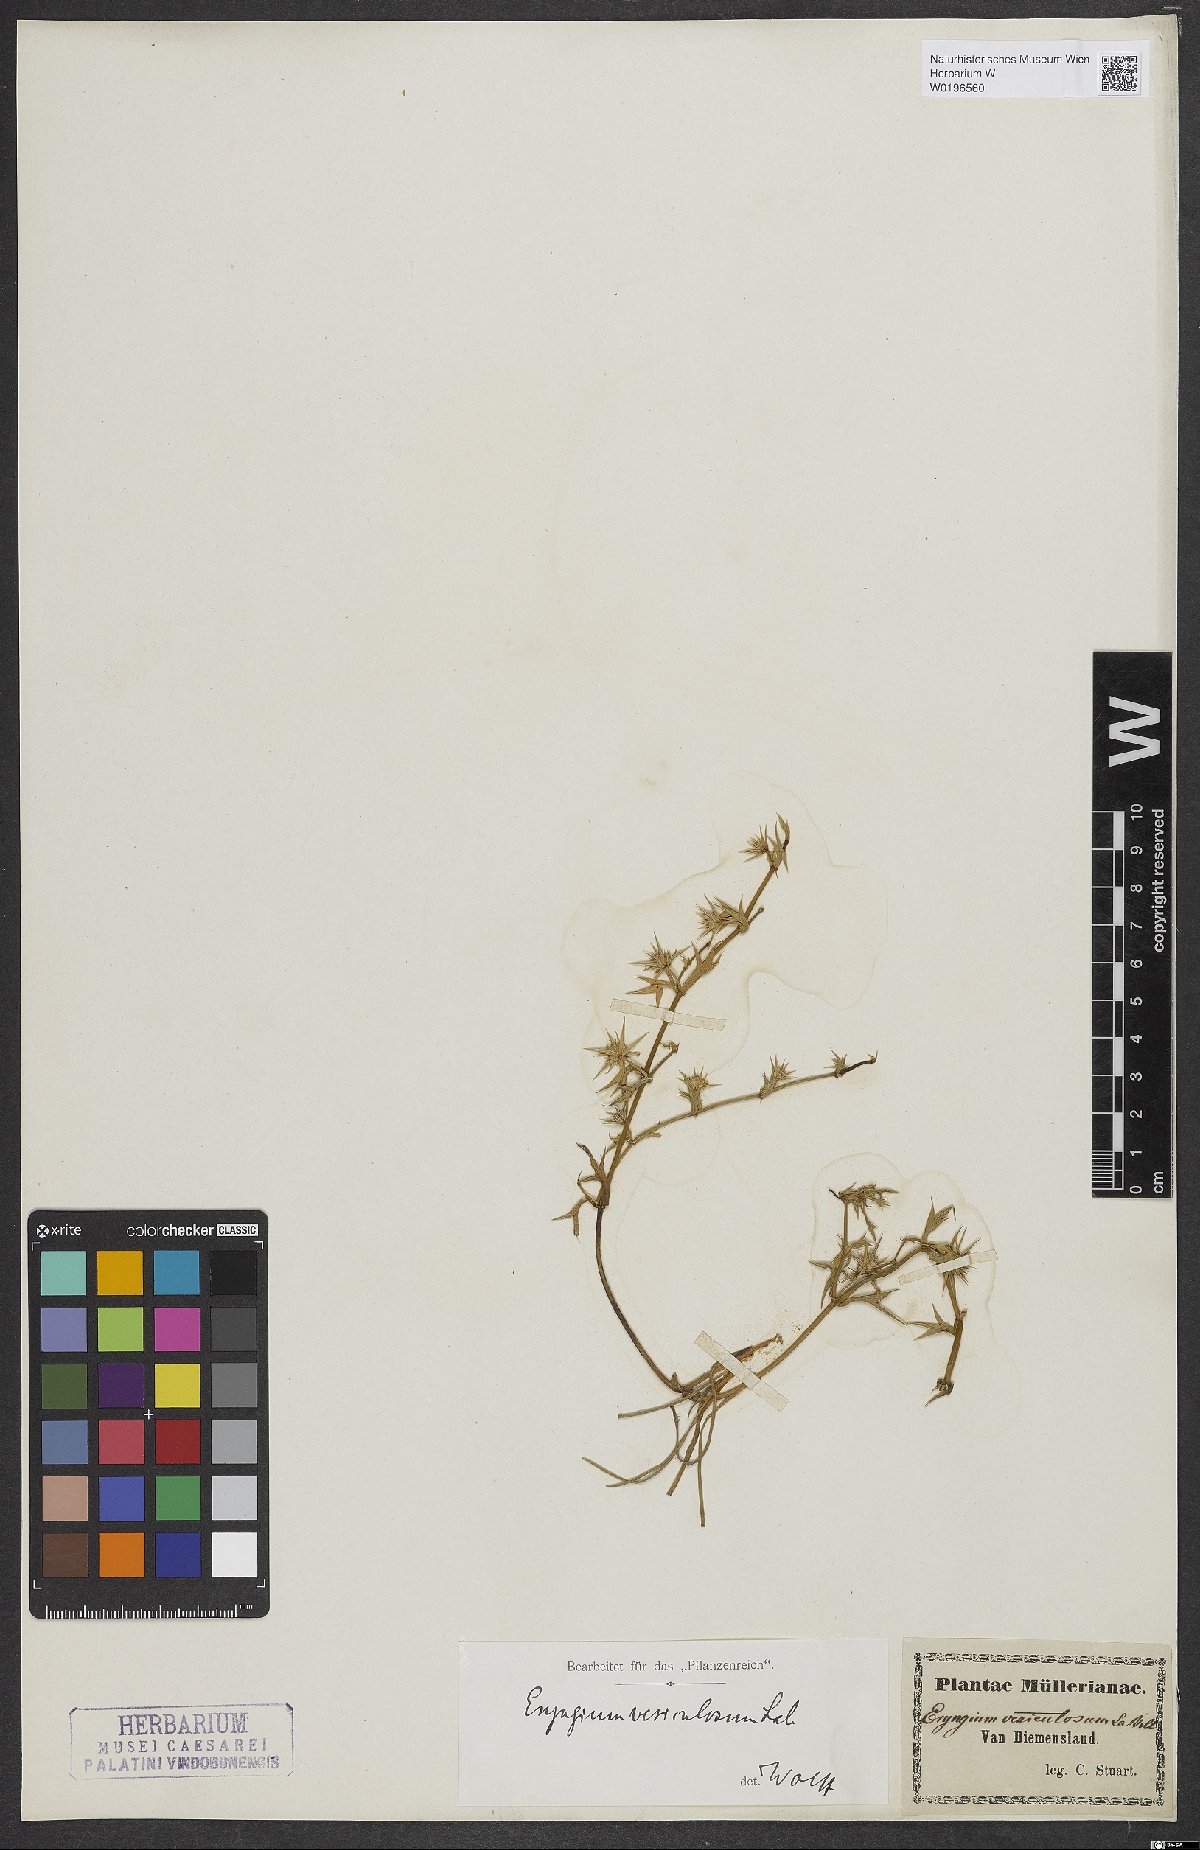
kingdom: Plantae
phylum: Tracheophyta
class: Magnoliopsida
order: Apiales
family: Apiaceae
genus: Eryngium
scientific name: Eryngium vesiculosum
